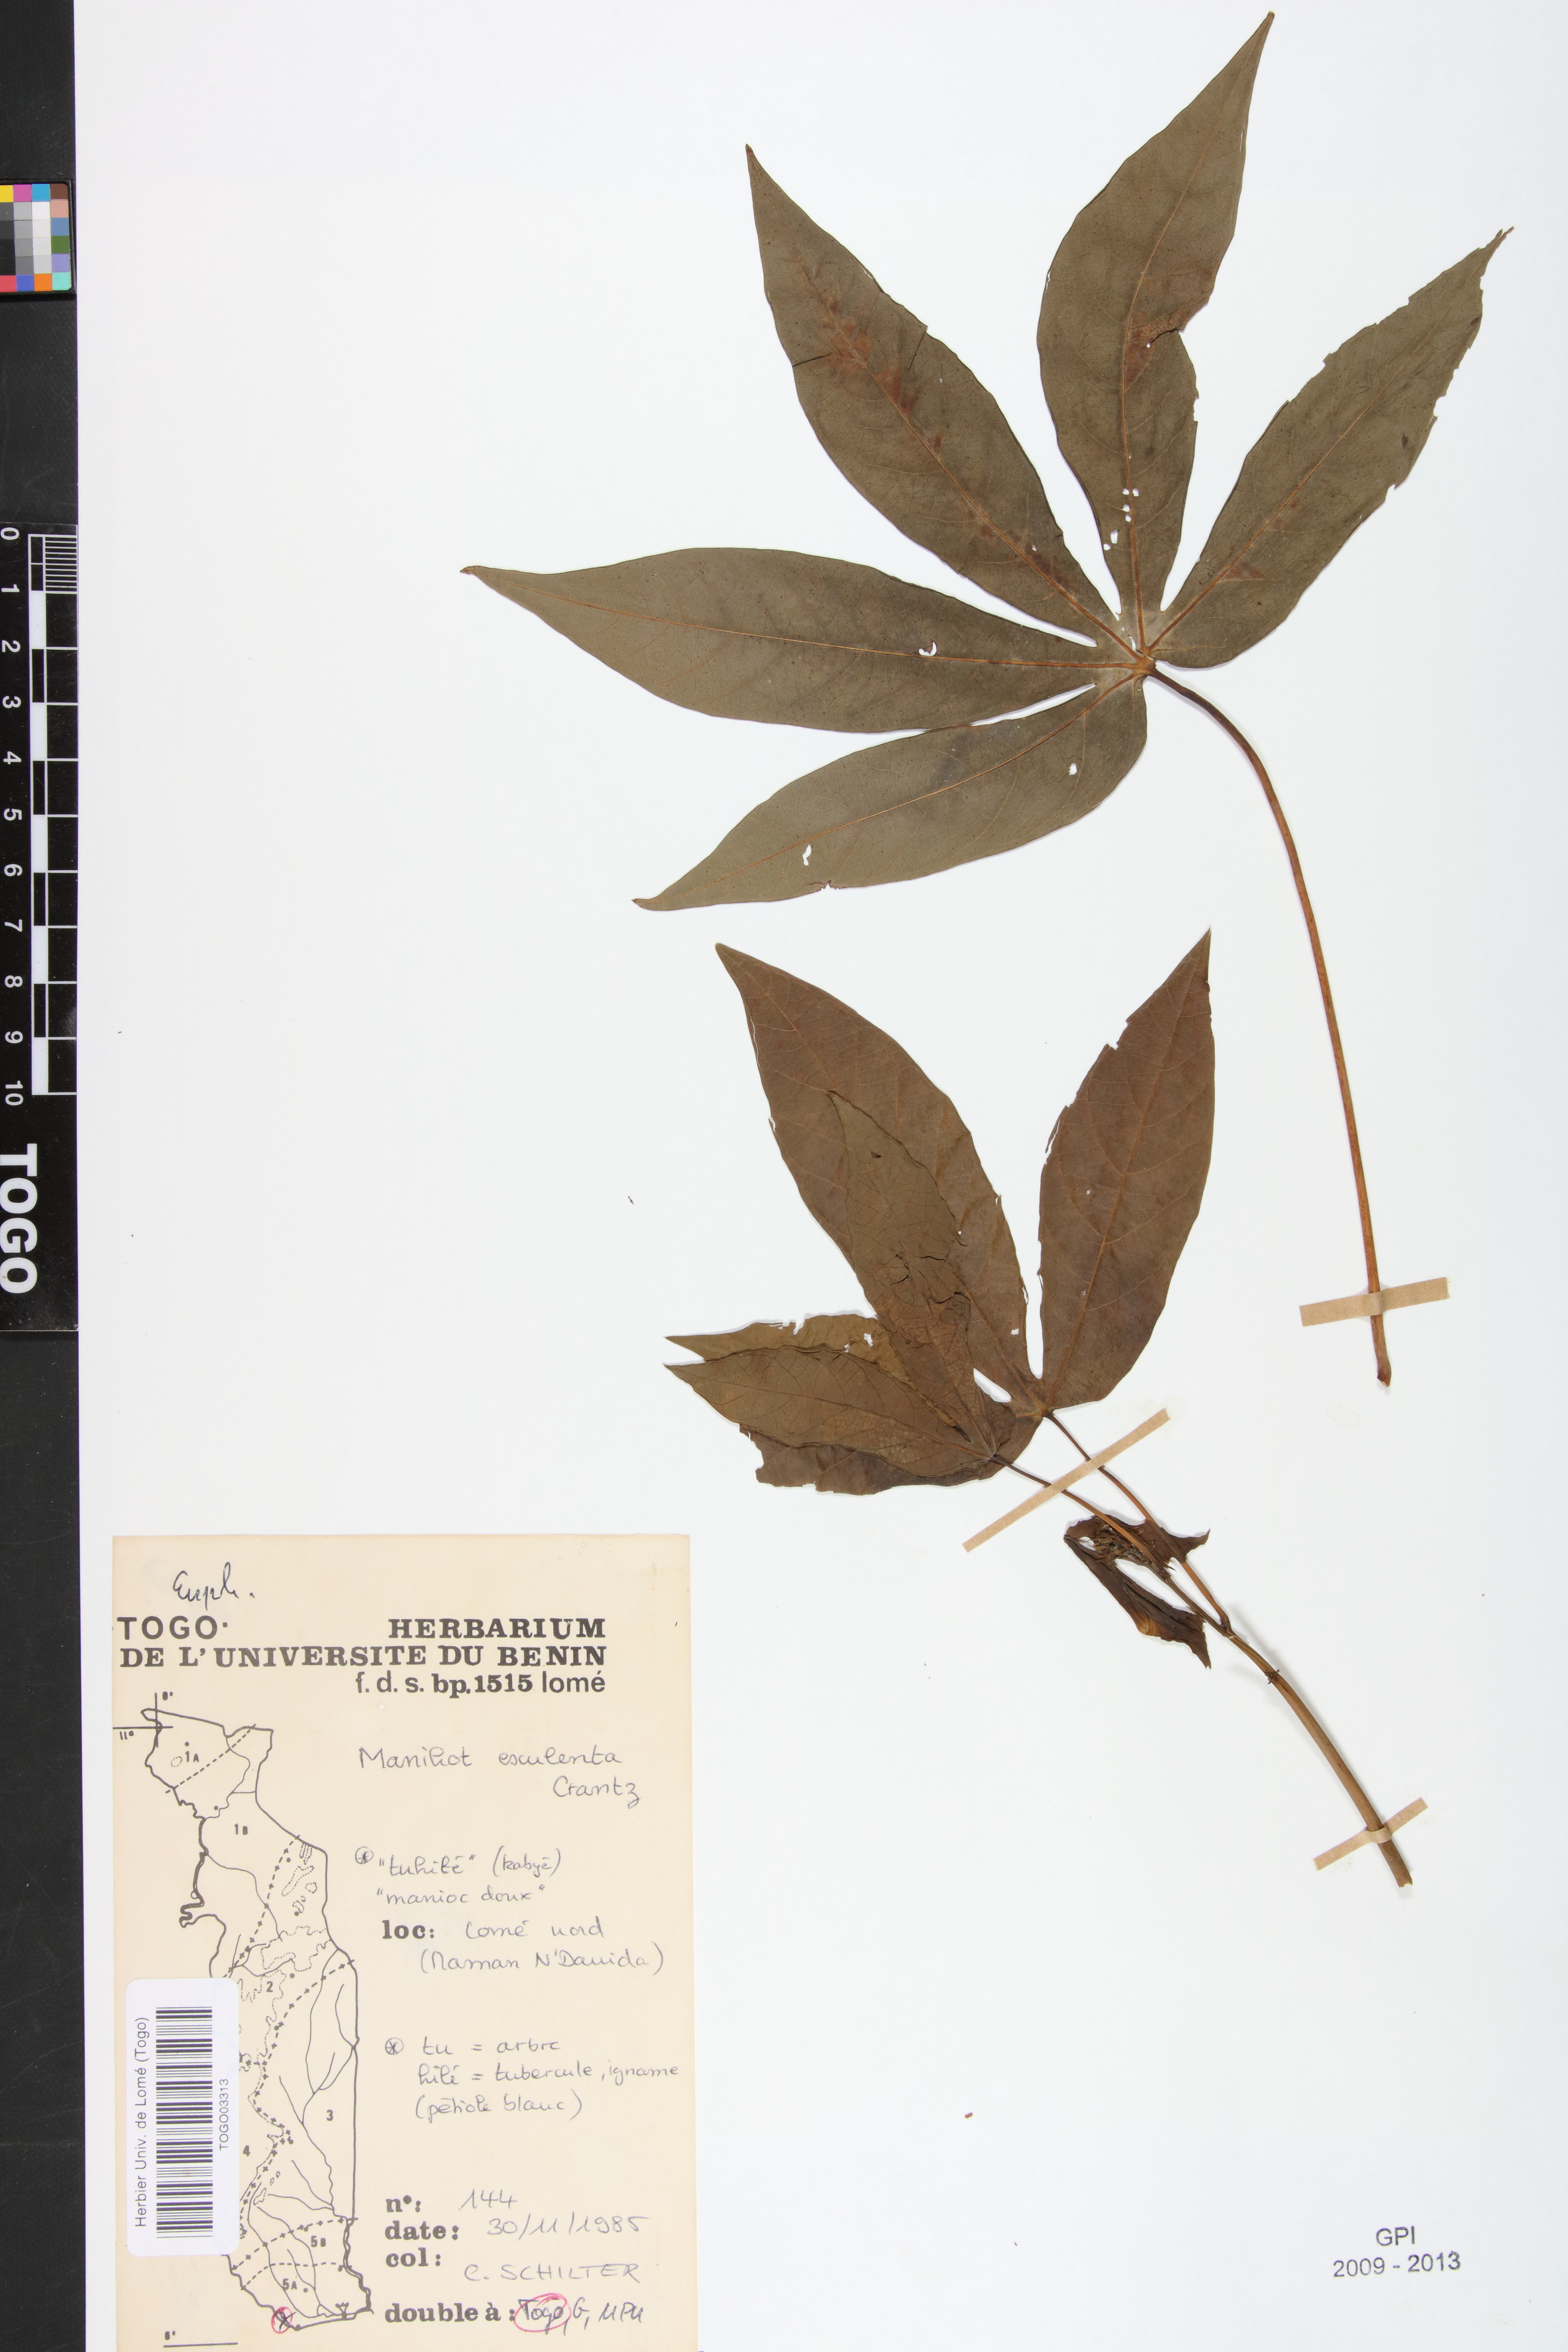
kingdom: Plantae
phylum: Tracheophyta
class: Magnoliopsida
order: Malpighiales
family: Euphorbiaceae
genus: Manihot
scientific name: Manihot esculenta
